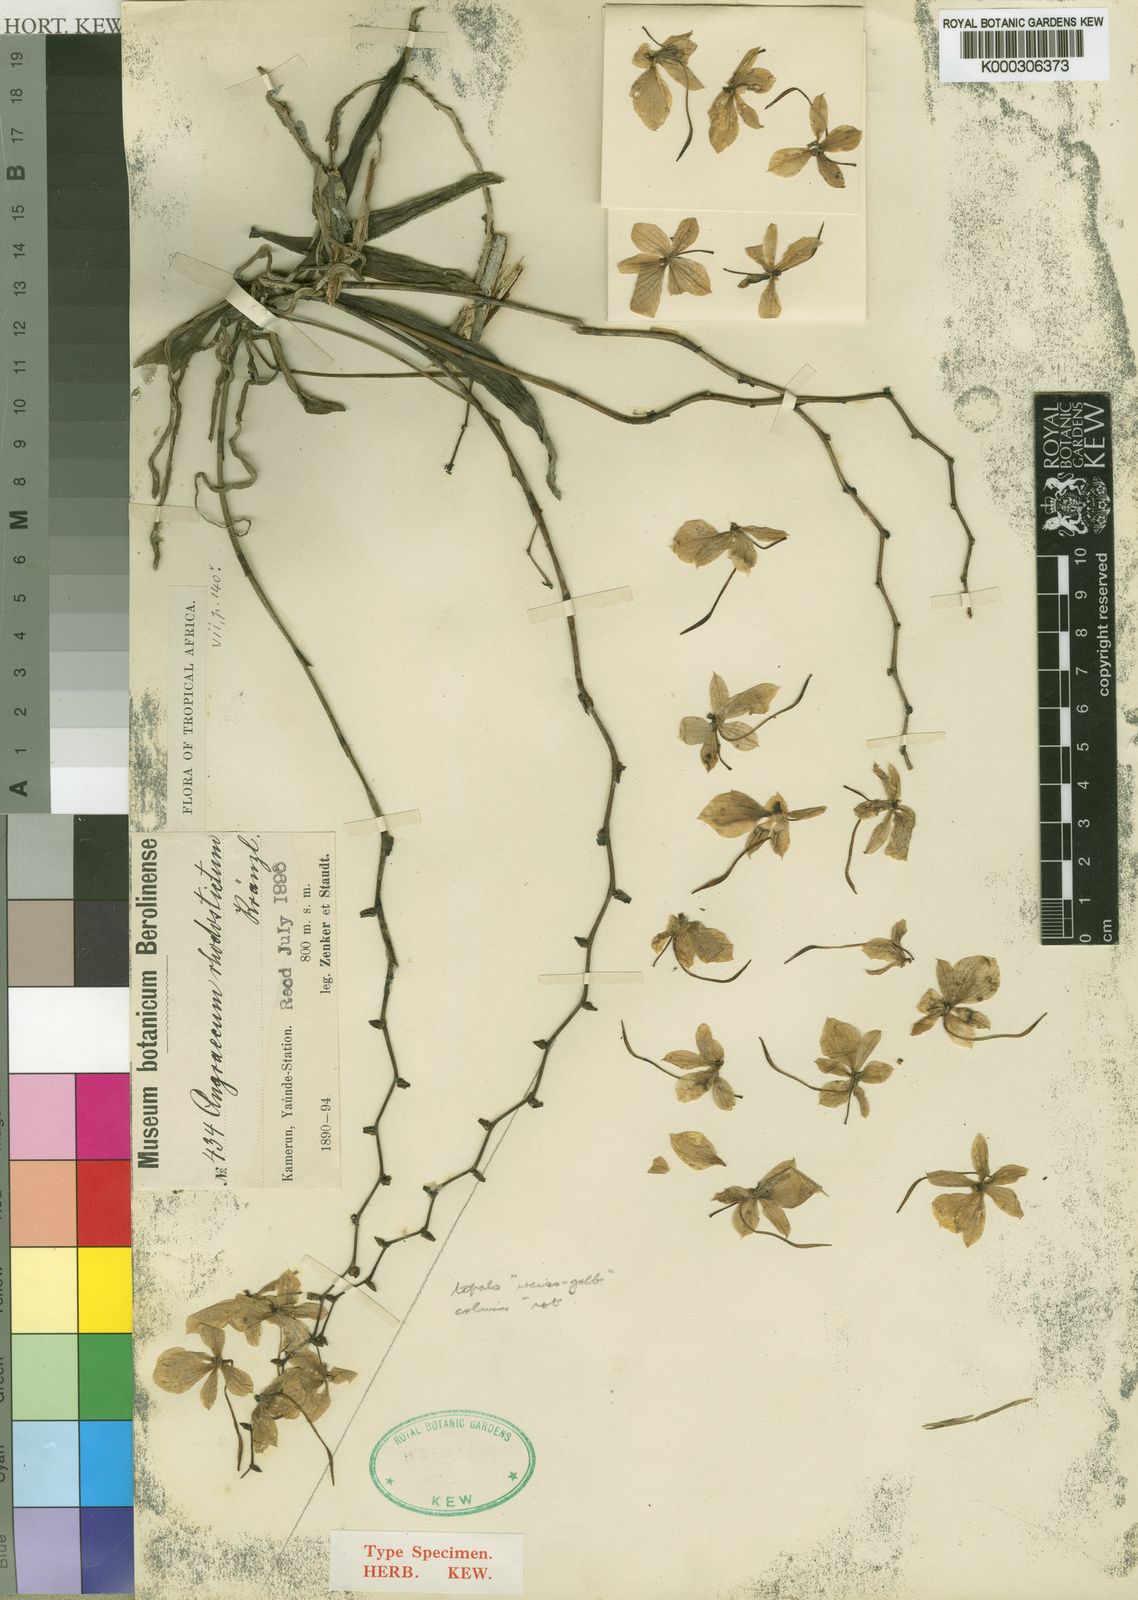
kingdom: Plantae
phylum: Tracheophyta
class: Liliopsida
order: Asparagales
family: Orchidaceae
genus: Aerangis
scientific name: Aerangis luteoalba
